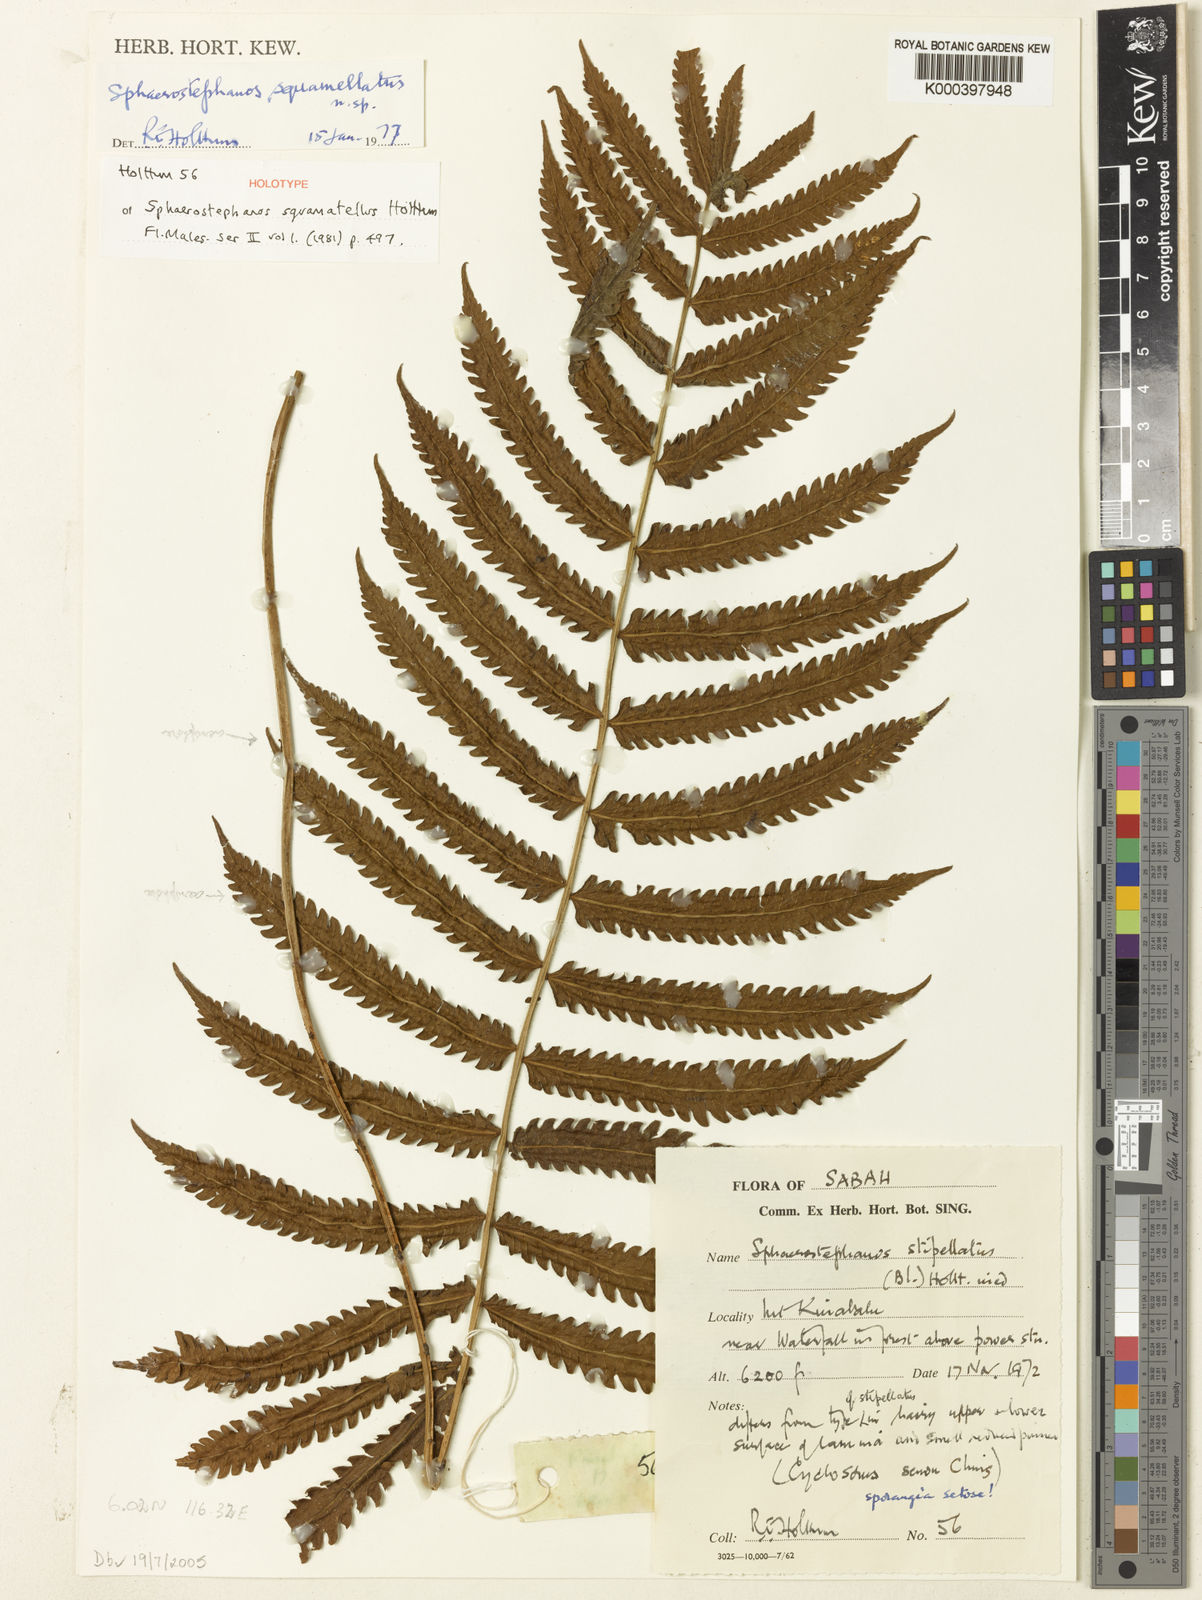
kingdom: Plantae
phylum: Tracheophyta
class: Polypodiopsida
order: Polypodiales
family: Thelypteridaceae
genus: Sphaerostephanos
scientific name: Sphaerostephanos squamatellus
